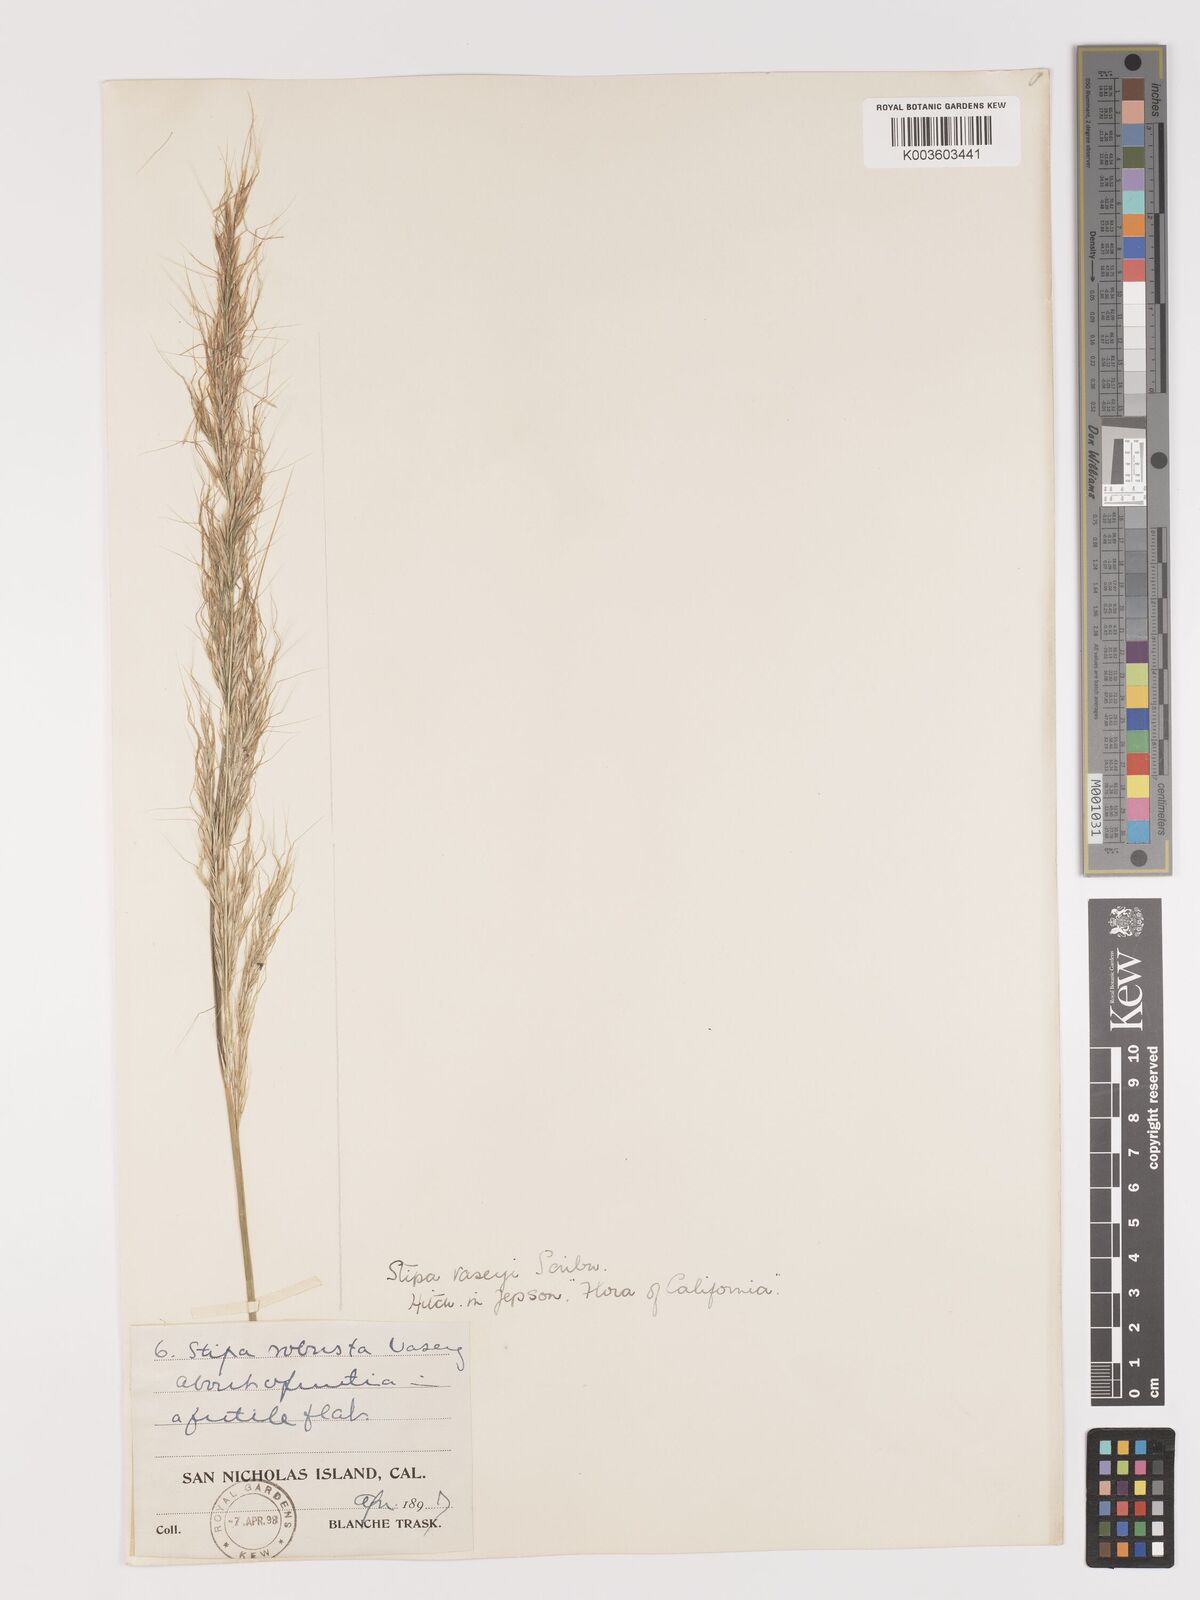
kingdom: Plantae
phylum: Tracheophyta
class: Liliopsida
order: Poales
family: Poaceae
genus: Eriocoma
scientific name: Eriocoma robusta
